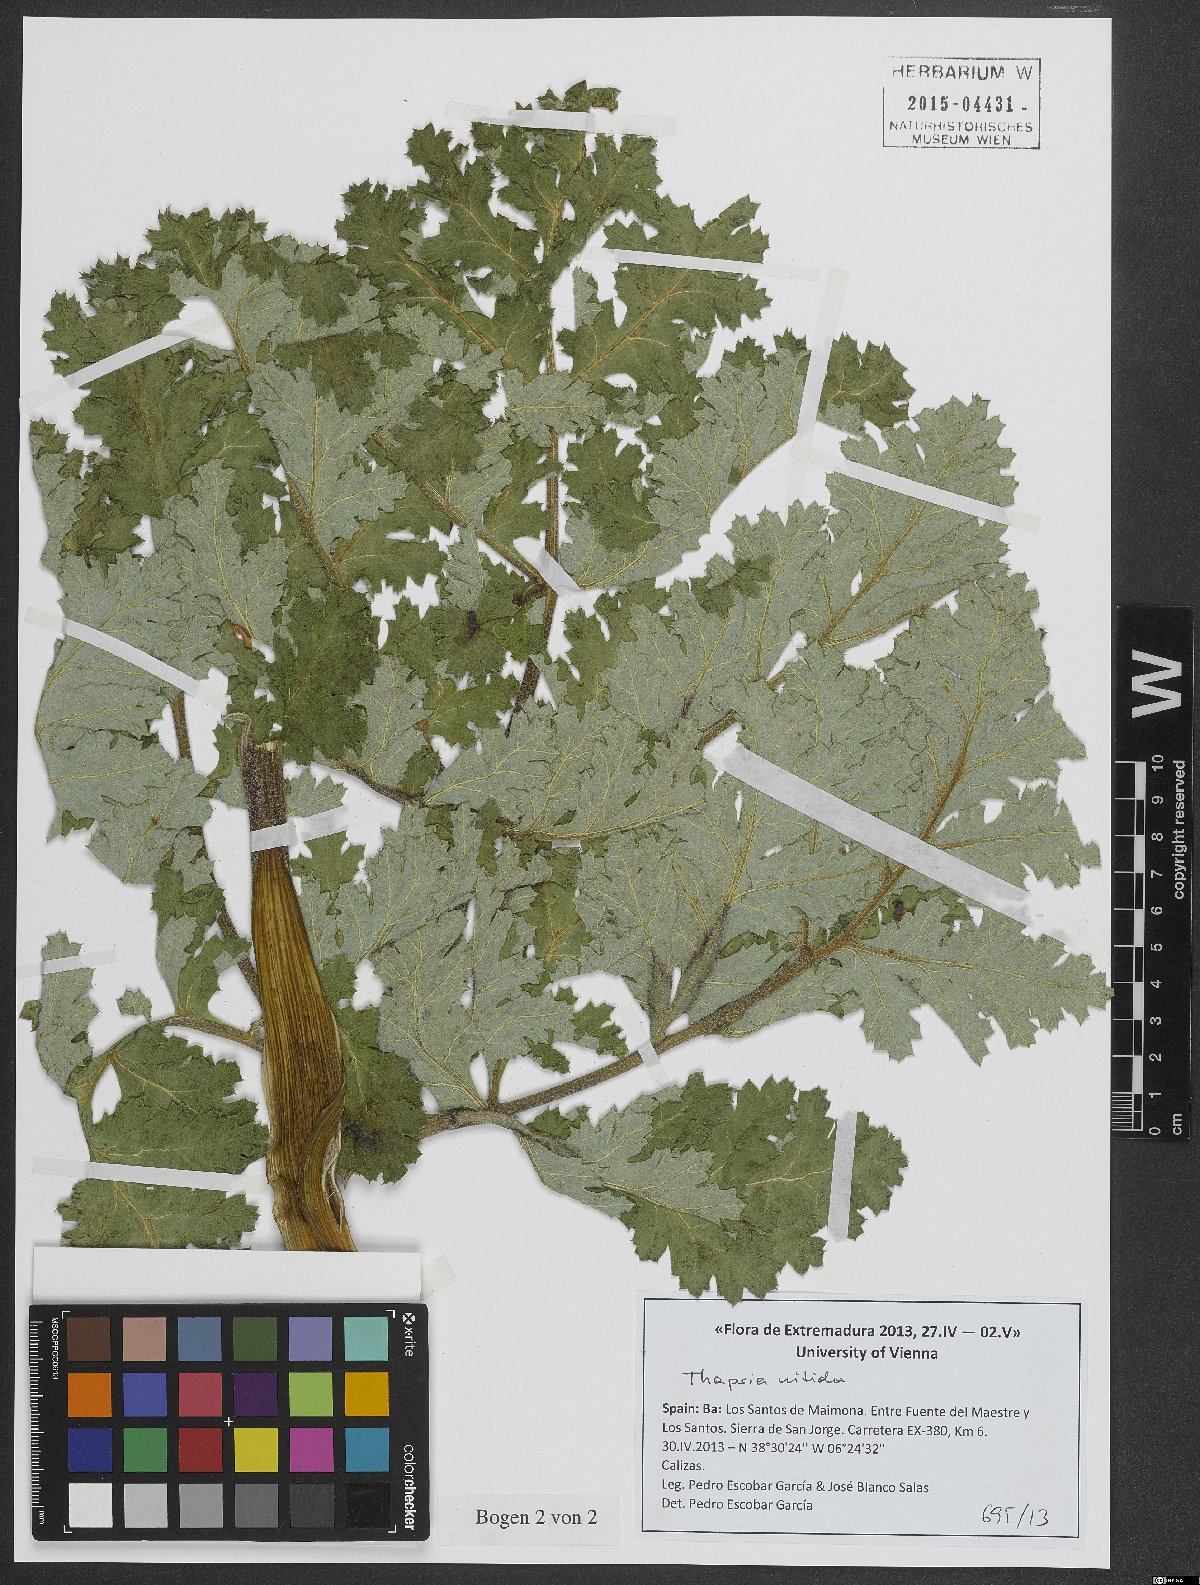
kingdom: Plantae
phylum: Tracheophyta
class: Magnoliopsida
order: Apiales
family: Apiaceae
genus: Thapsia
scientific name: Thapsia nitida
